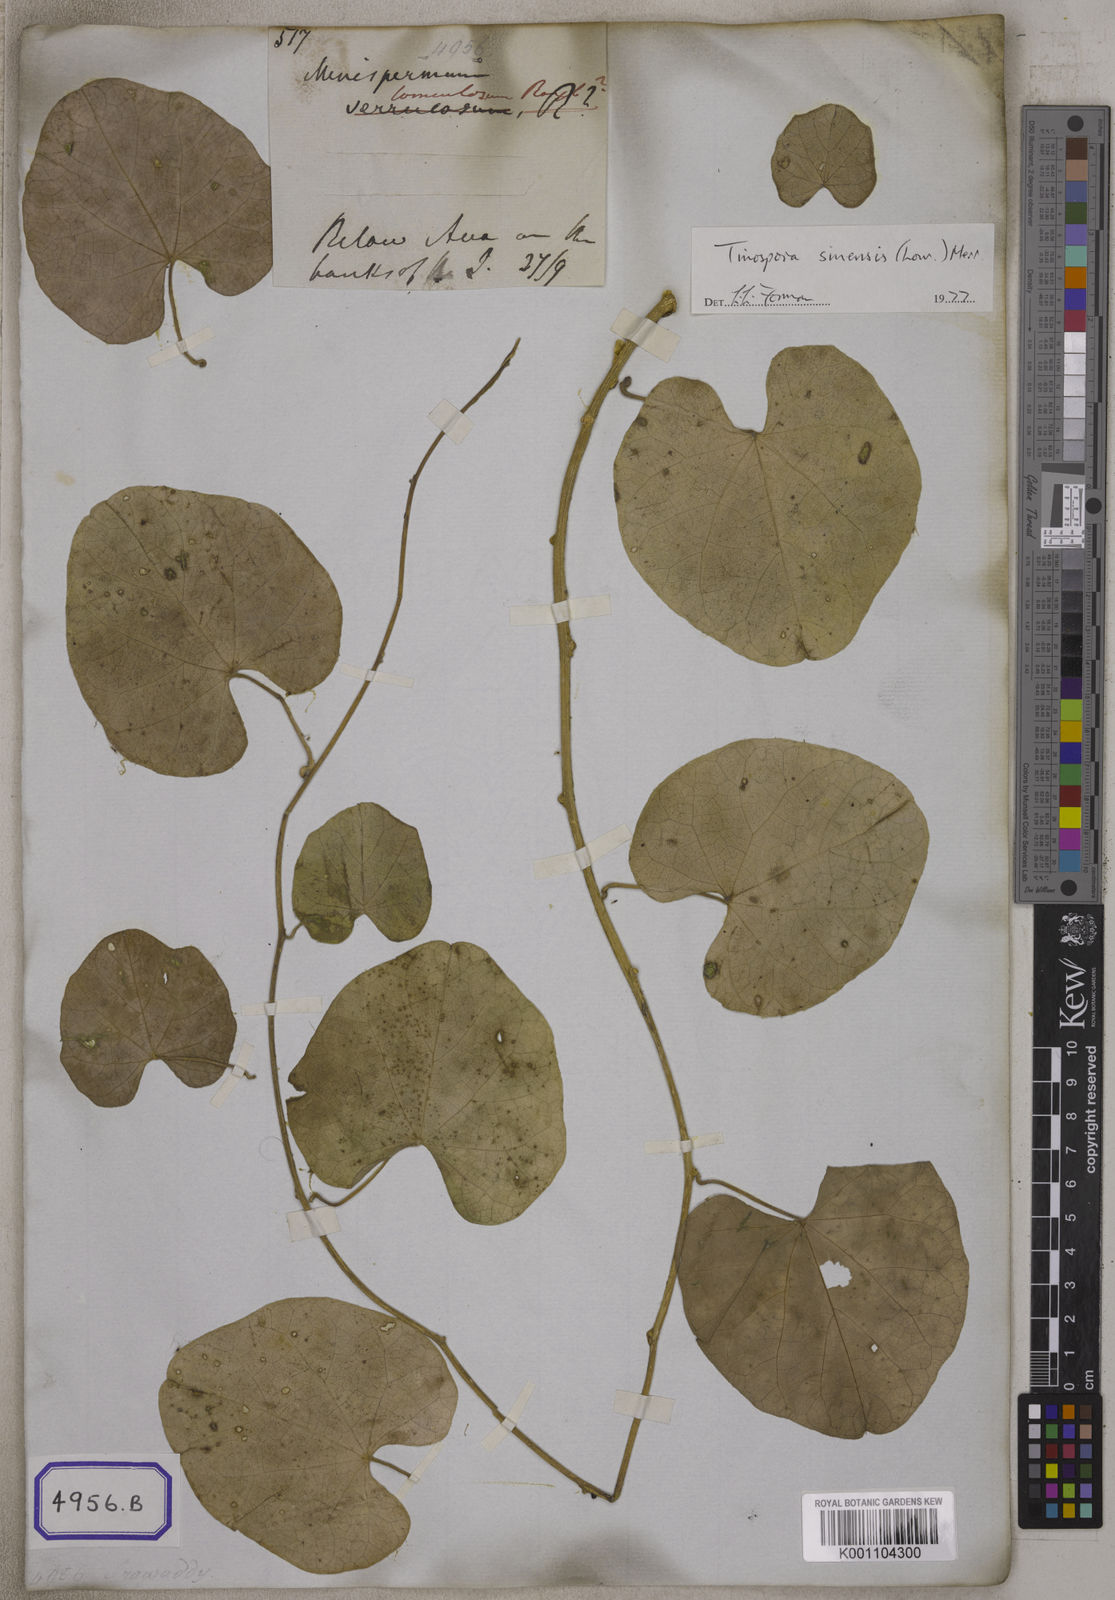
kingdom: Plantae
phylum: Tracheophyta
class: Magnoliopsida
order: Ranunculales
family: Menispermaceae
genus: Tinospora
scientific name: Tinospora sinensis
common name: Chinese tinospora
